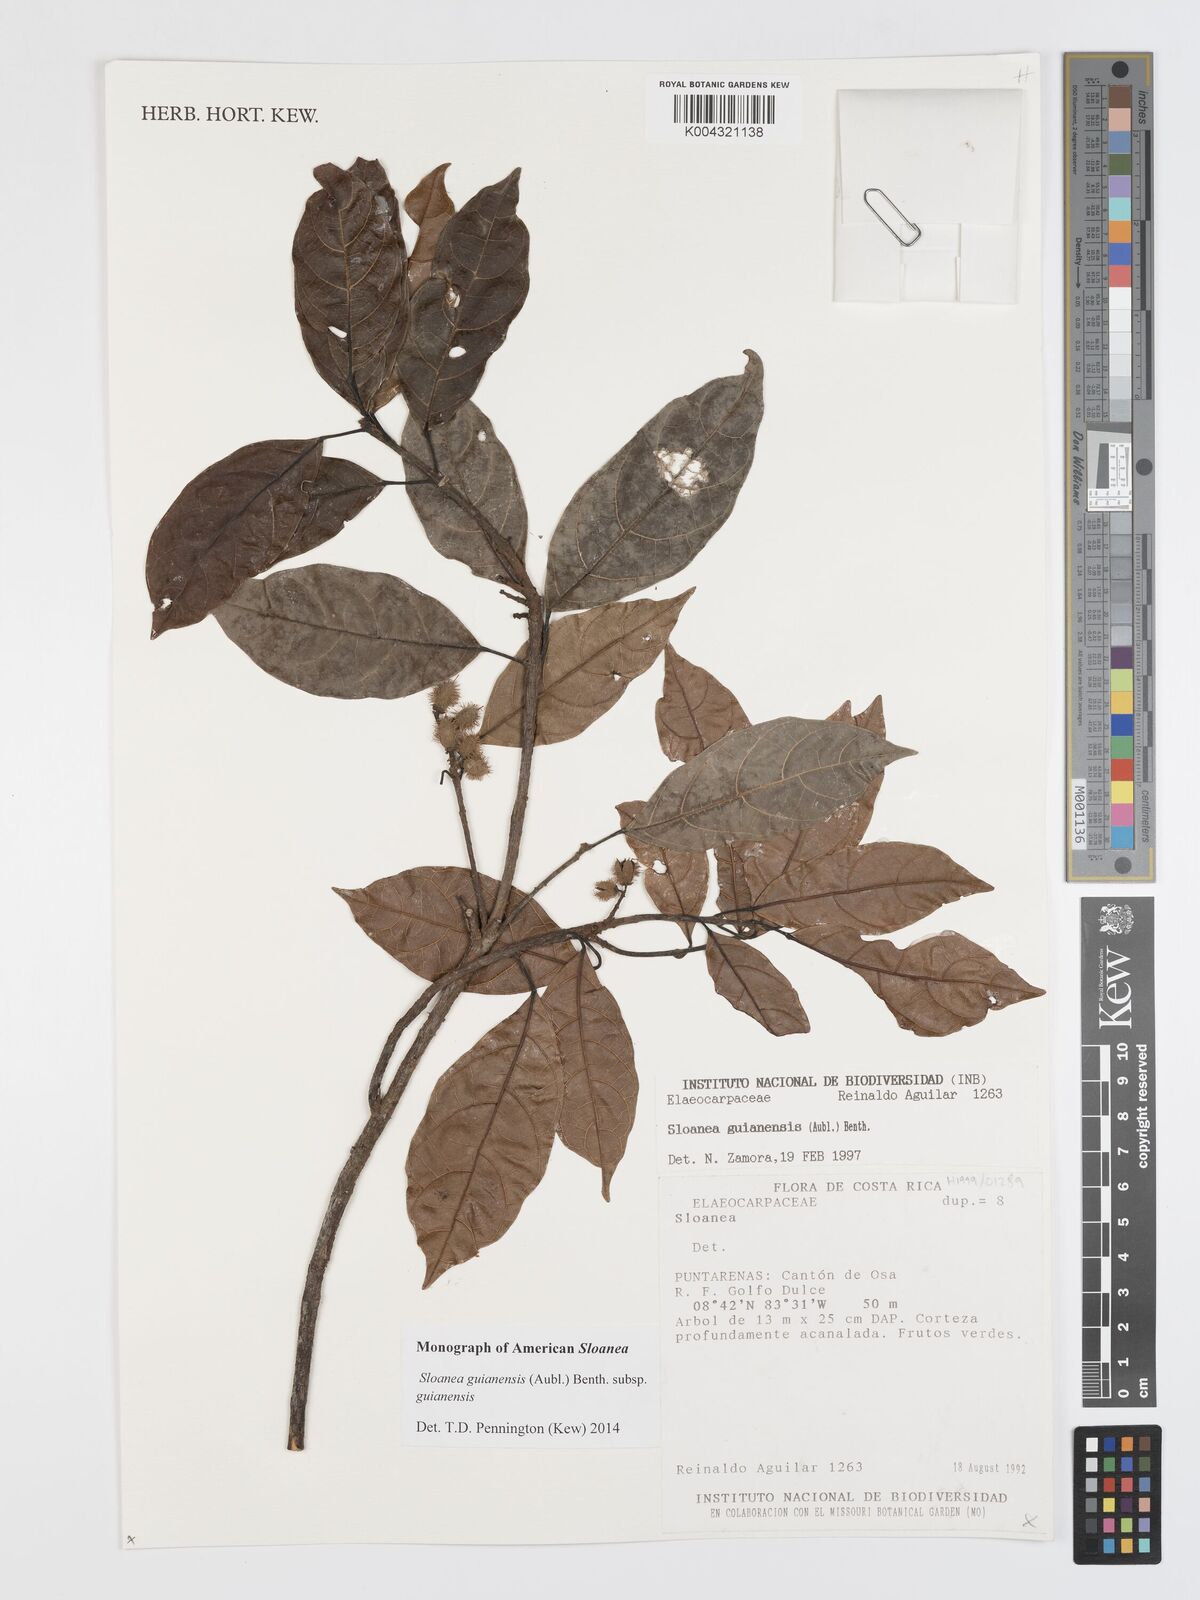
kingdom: Plantae
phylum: Tracheophyta
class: Magnoliopsida
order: Oxalidales
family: Elaeocarpaceae
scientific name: Elaeocarpaceae
